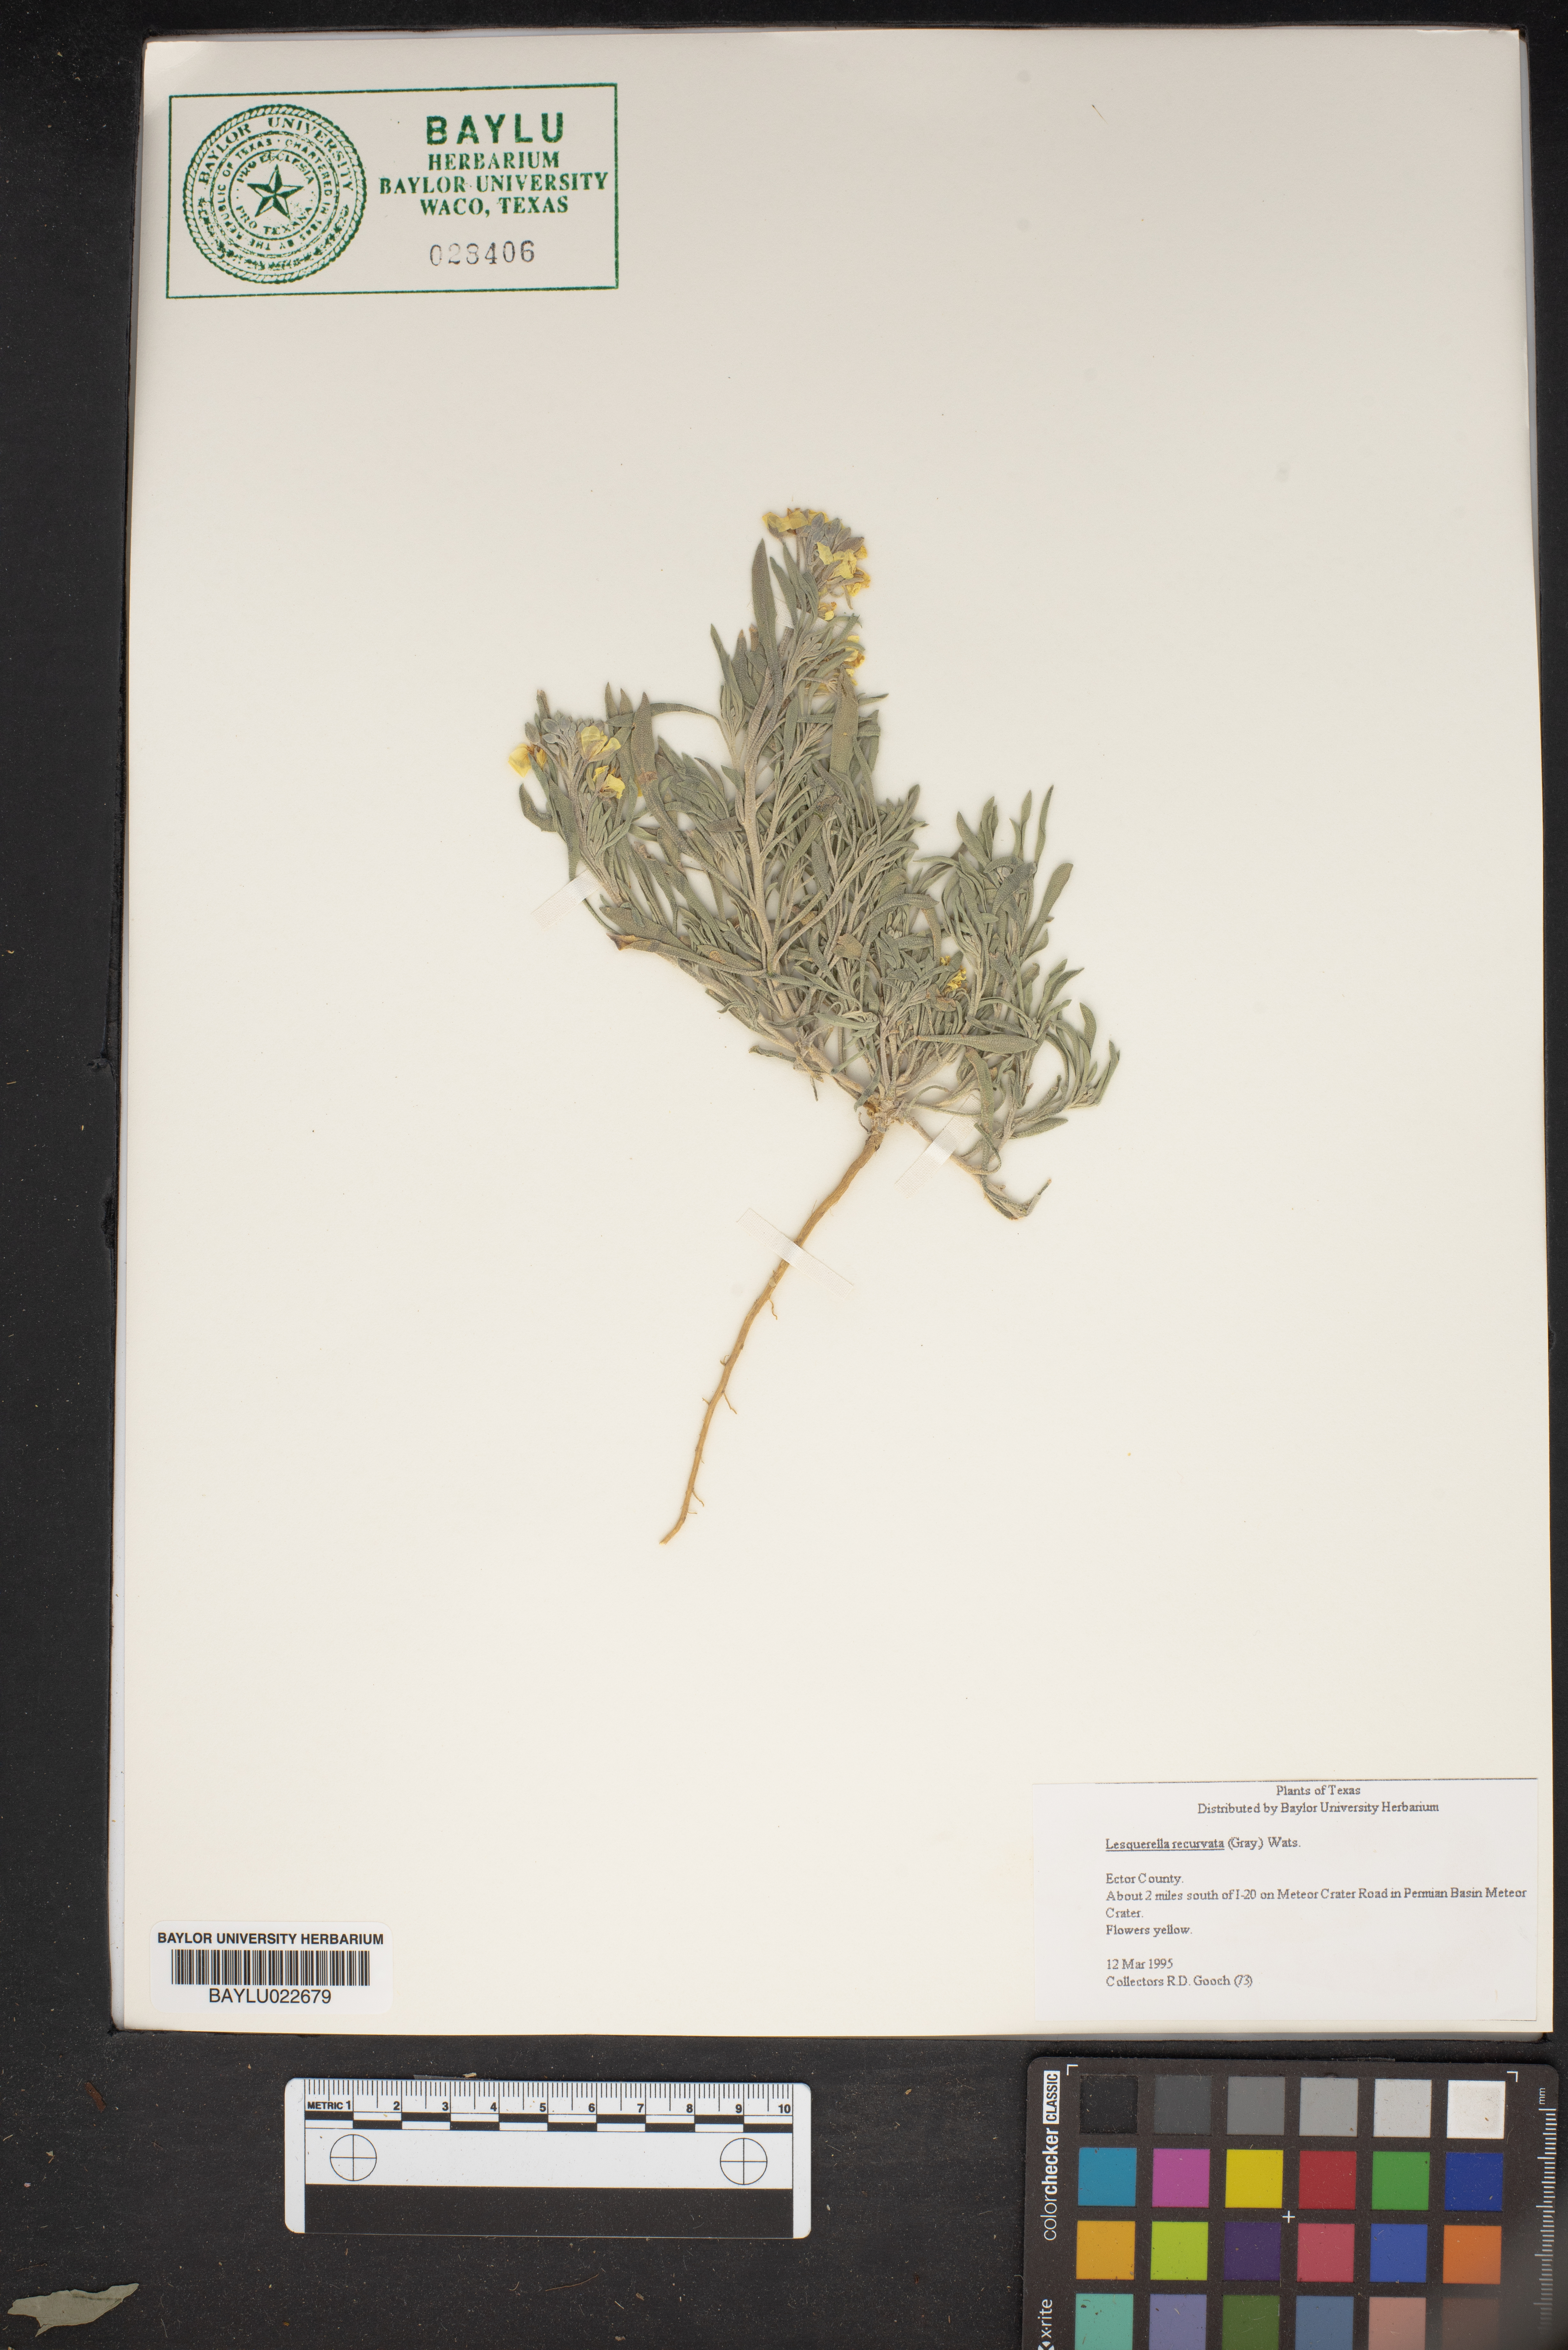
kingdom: Plantae
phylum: Tracheophyta
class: Magnoliopsida
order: Brassicales
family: Brassicaceae
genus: Physaria
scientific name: Physaria recurvata
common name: Gaslight bladderpod
